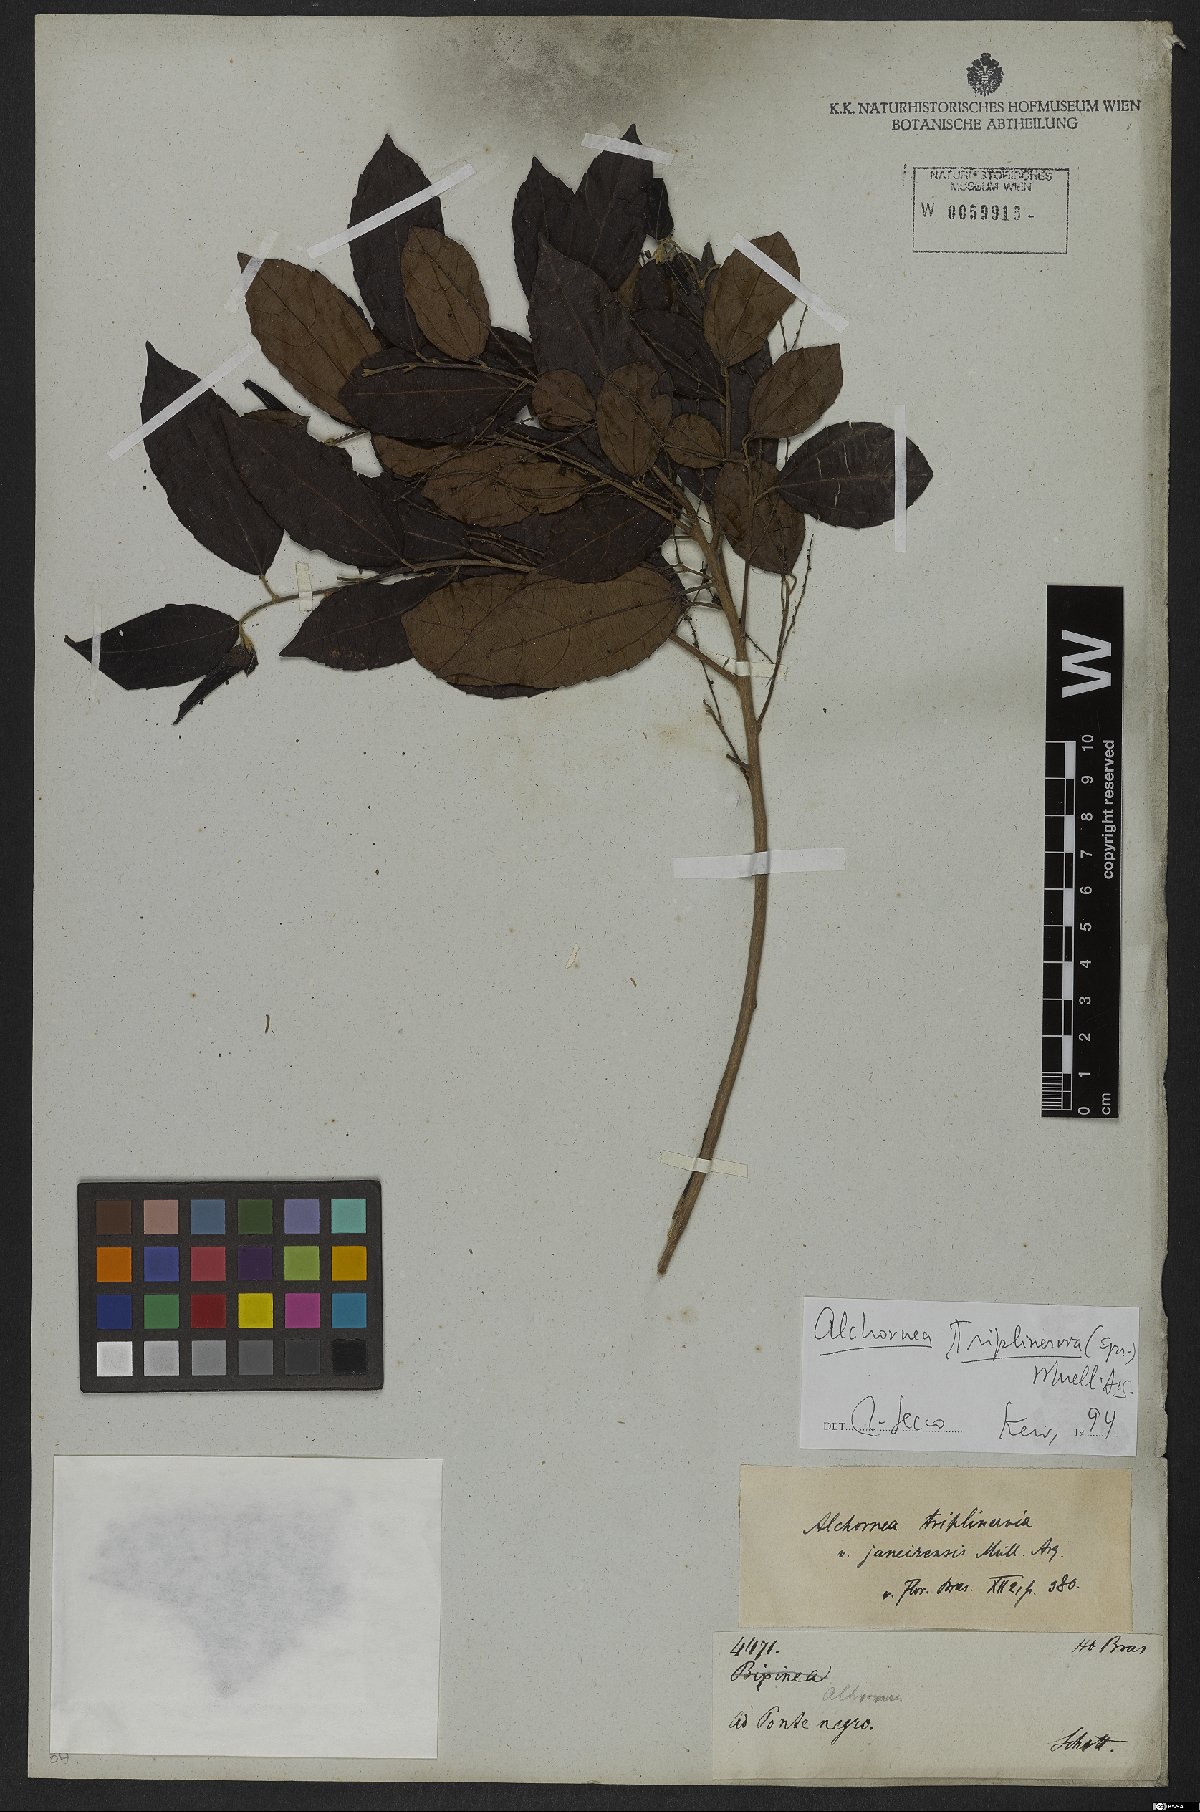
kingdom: Plantae
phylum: Tracheophyta
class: Magnoliopsida
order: Malpighiales
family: Euphorbiaceae
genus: Alchornea
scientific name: Alchornea triplinervia
